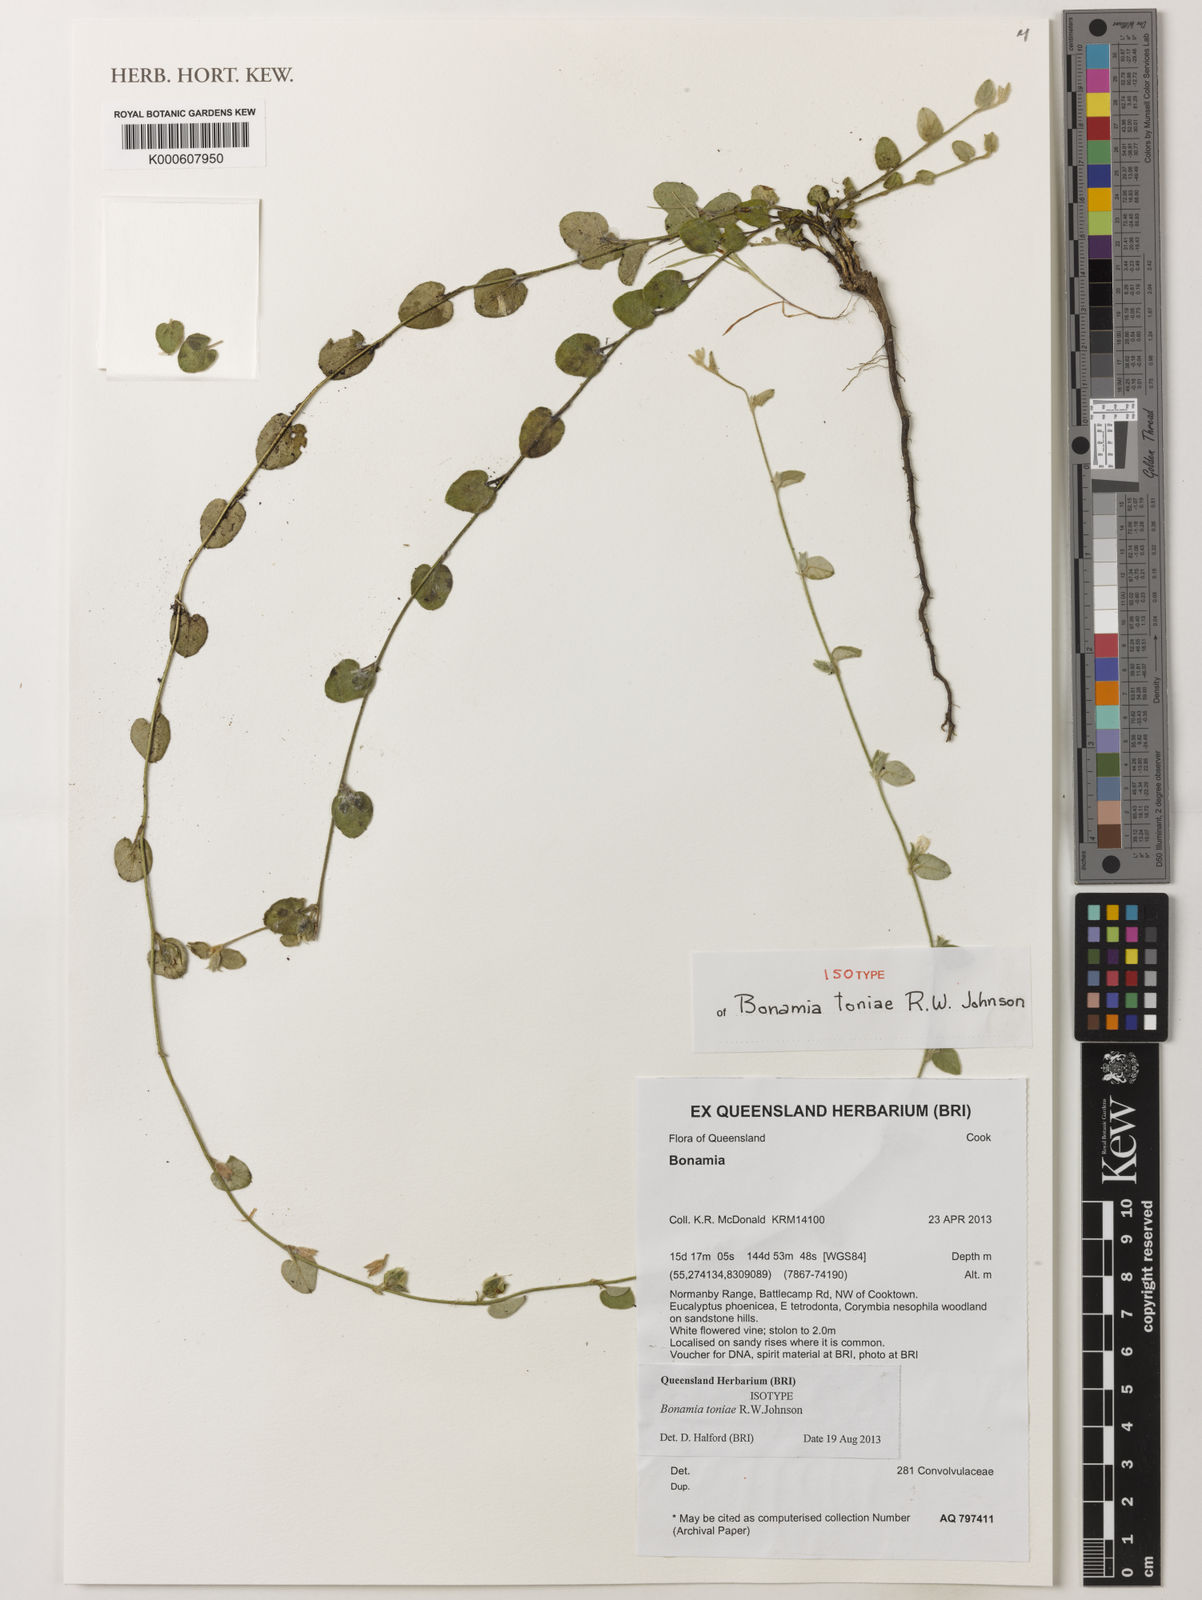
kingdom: Plantae
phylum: Tracheophyta
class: Magnoliopsida
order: Solanales
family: Convolvulaceae
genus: Bonamia
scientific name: Bonamia toniae
